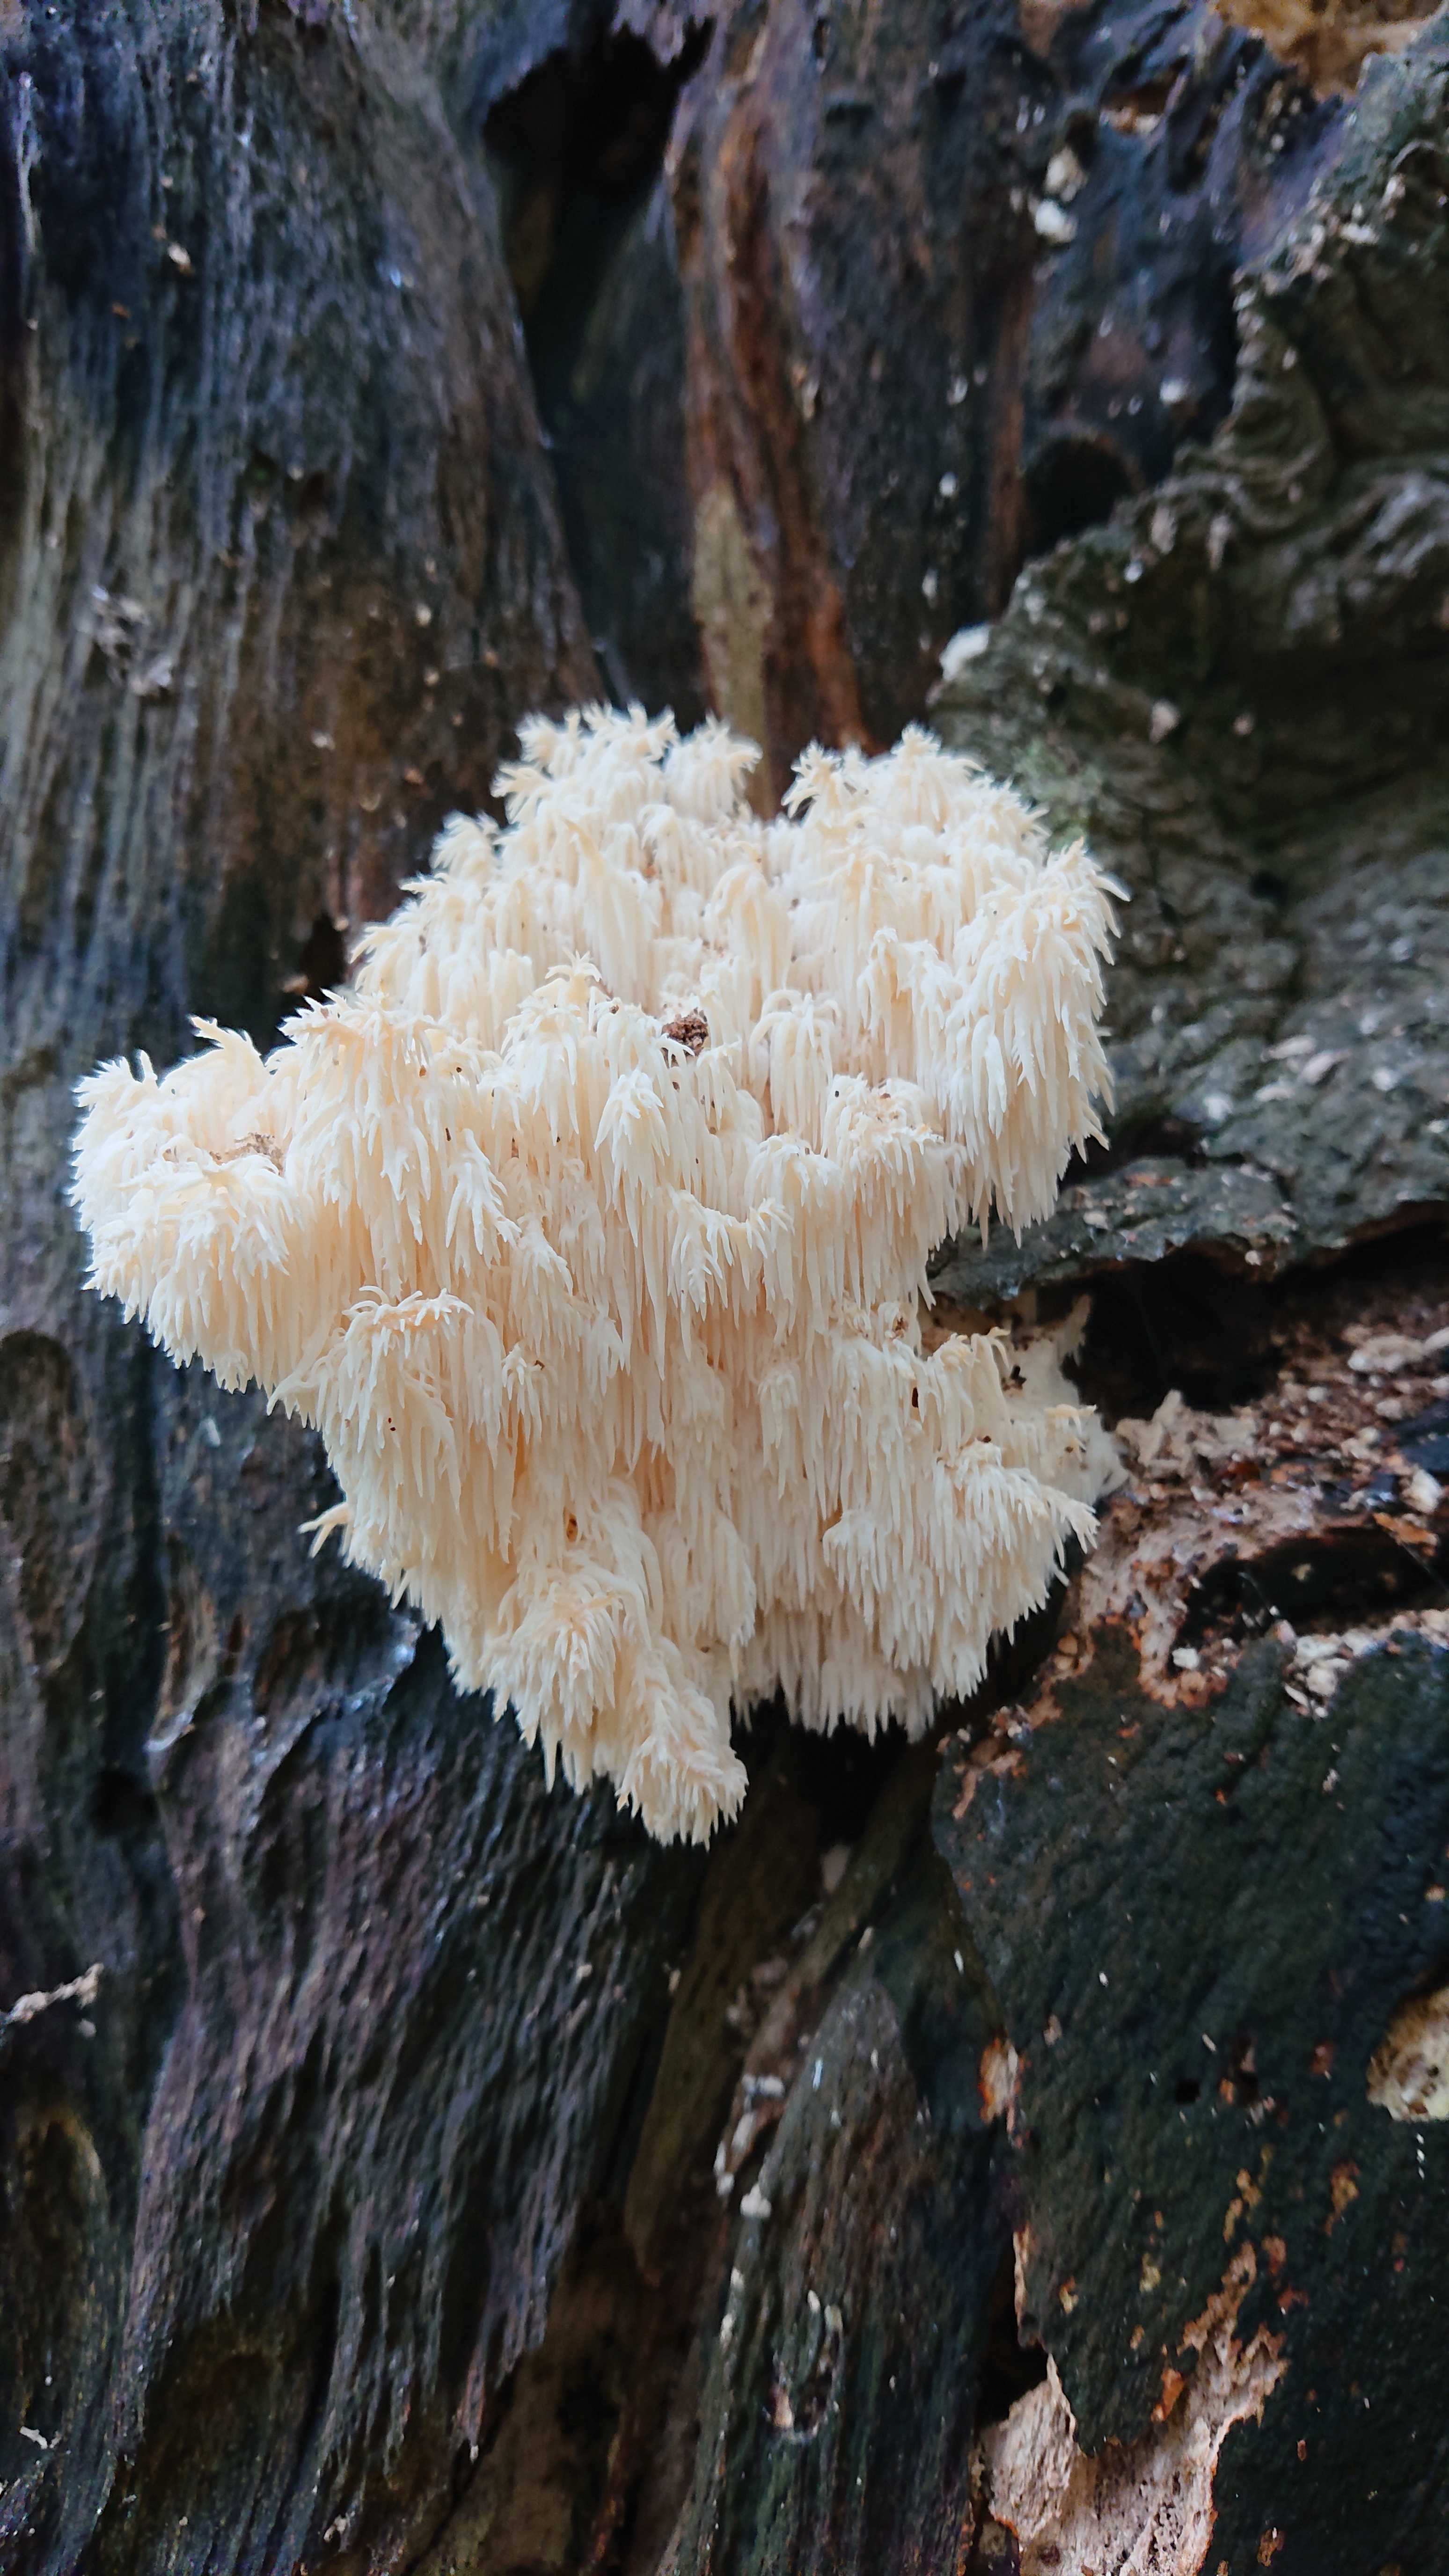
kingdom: Fungi
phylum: Basidiomycota
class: Agaricomycetes
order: Russulales
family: Hericiaceae
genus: Hericium
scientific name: Hericium coralloides
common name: koralpigsvamp
